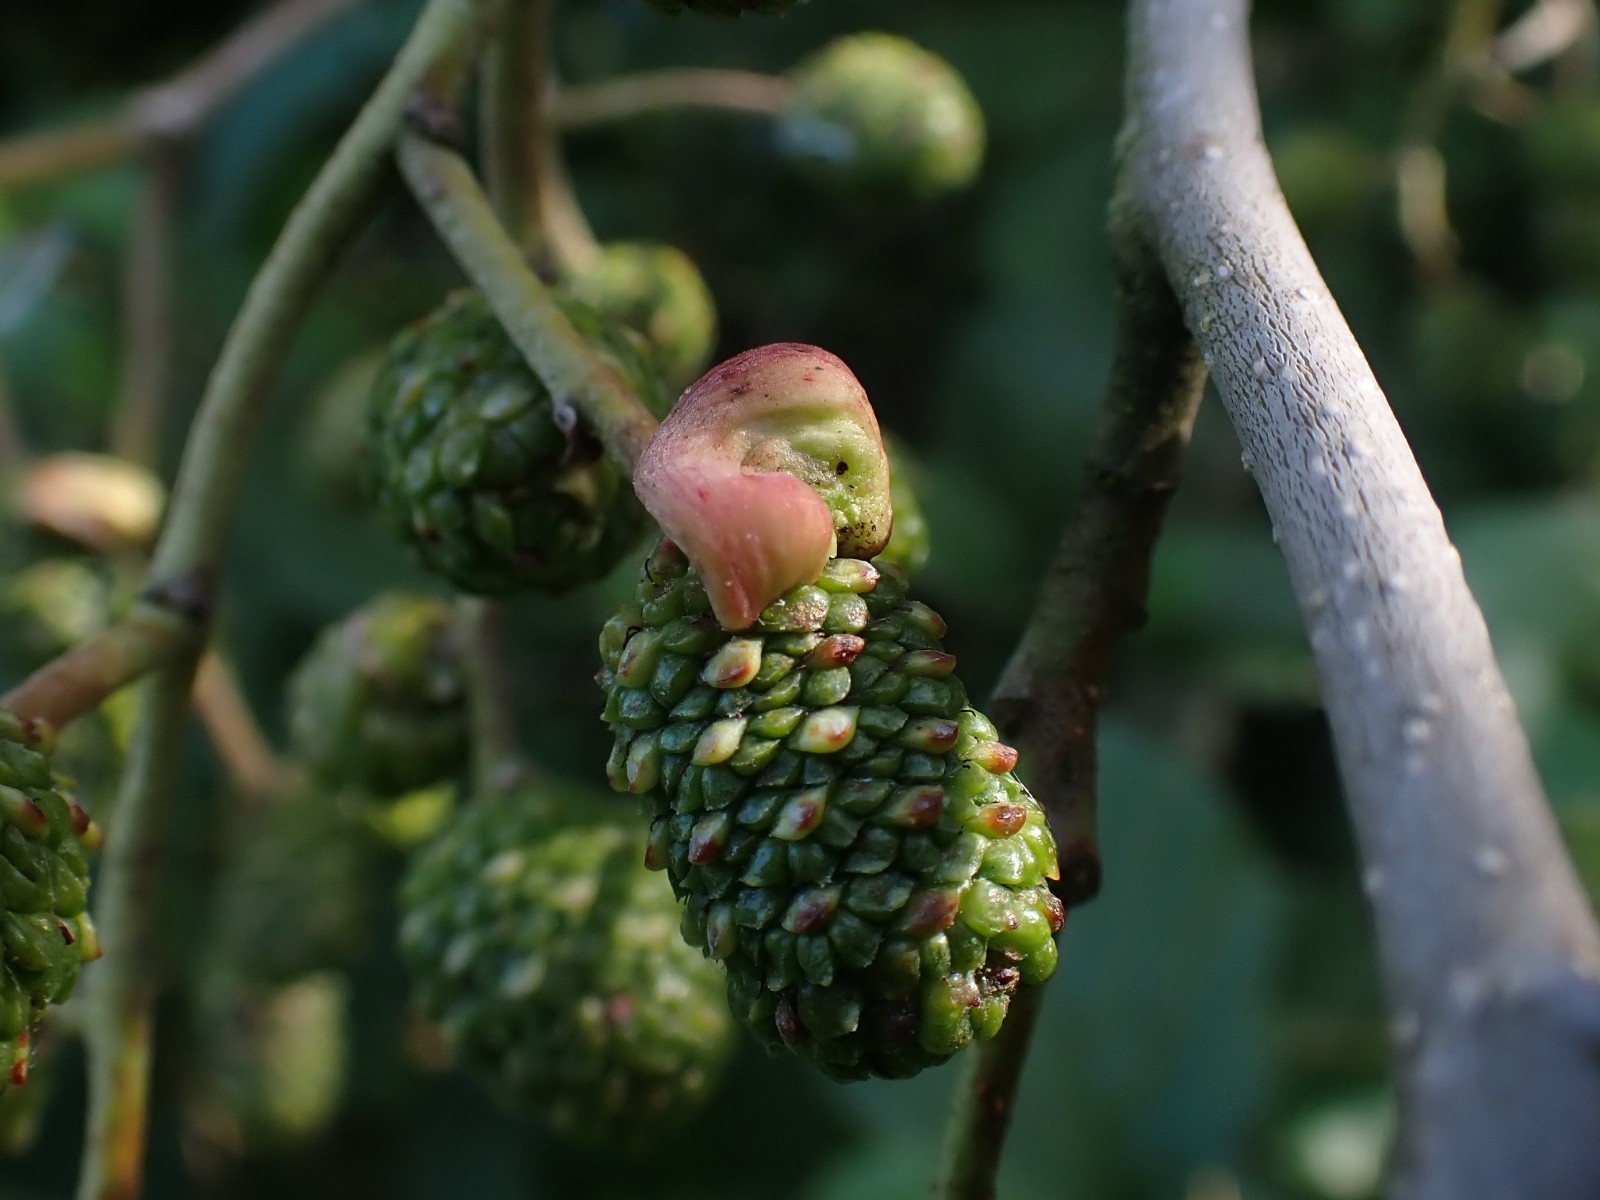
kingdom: Fungi
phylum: Ascomycota
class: Taphrinomycetes
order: Taphrinales
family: Taphrinaceae
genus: Taphrina
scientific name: Taphrina alni
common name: Alder tongue
